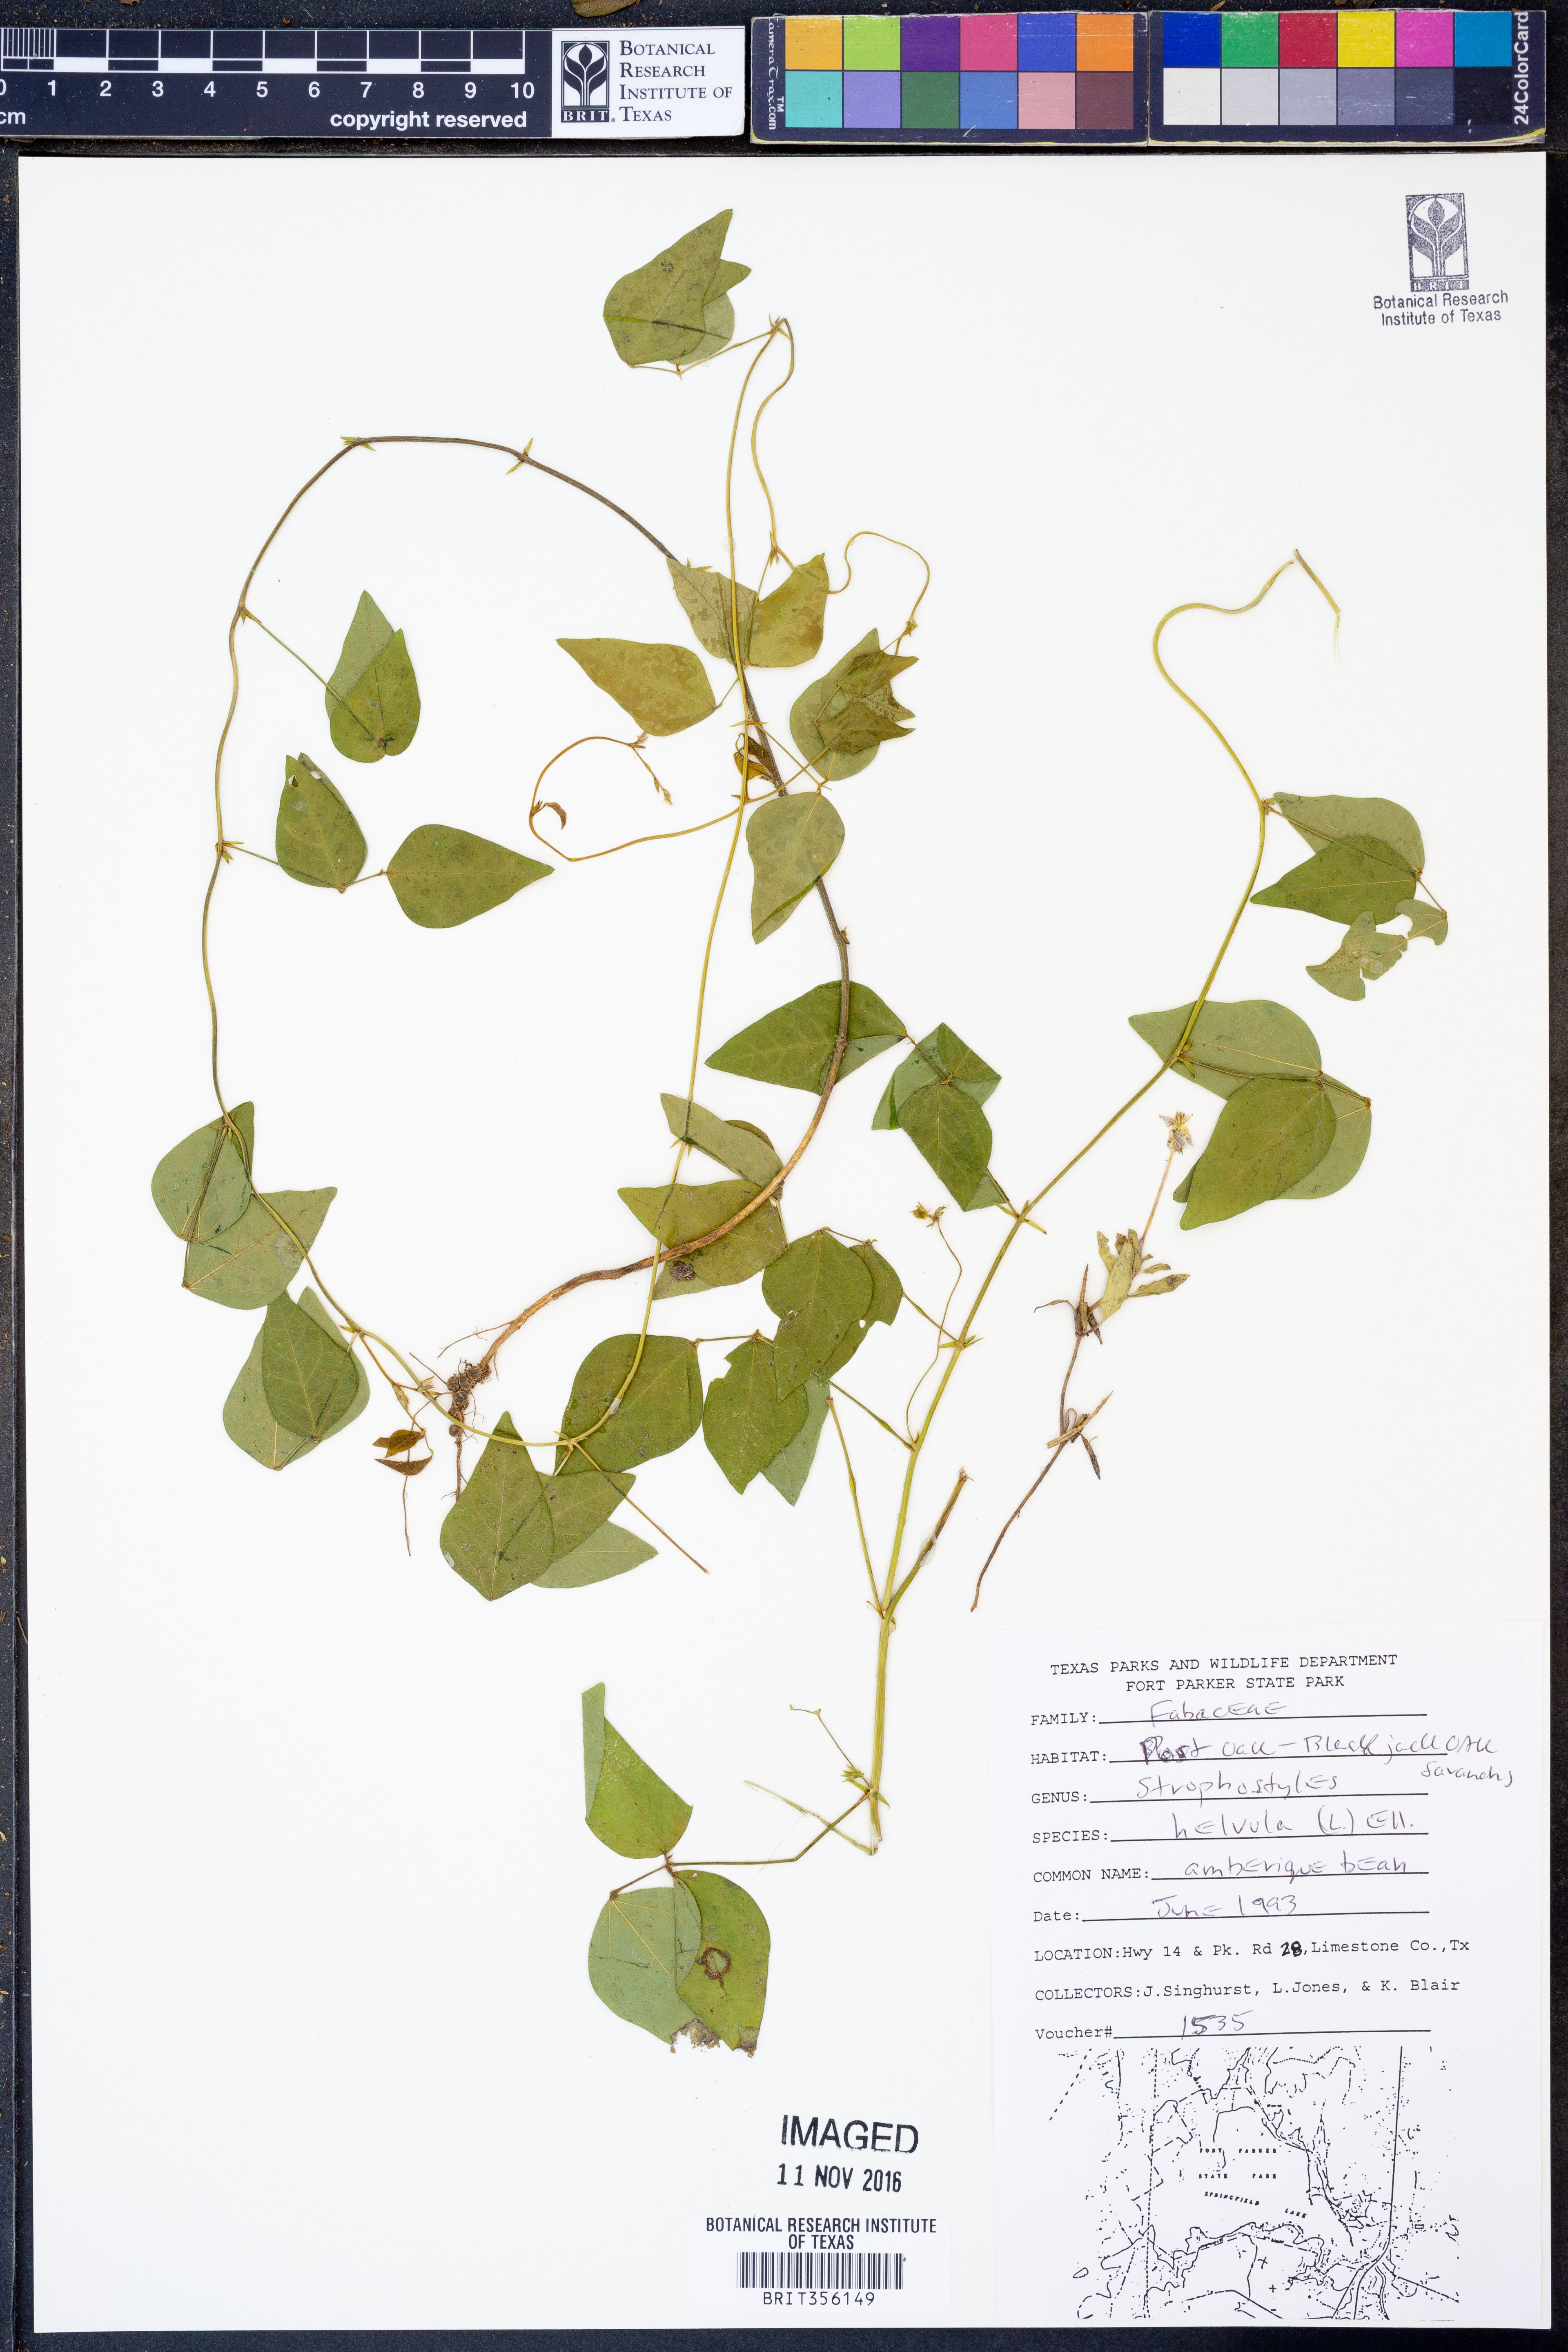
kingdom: Plantae
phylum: Tracheophyta
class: Magnoliopsida
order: Fabales
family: Fabaceae
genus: Strophostyles
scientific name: Strophostyles helvula
